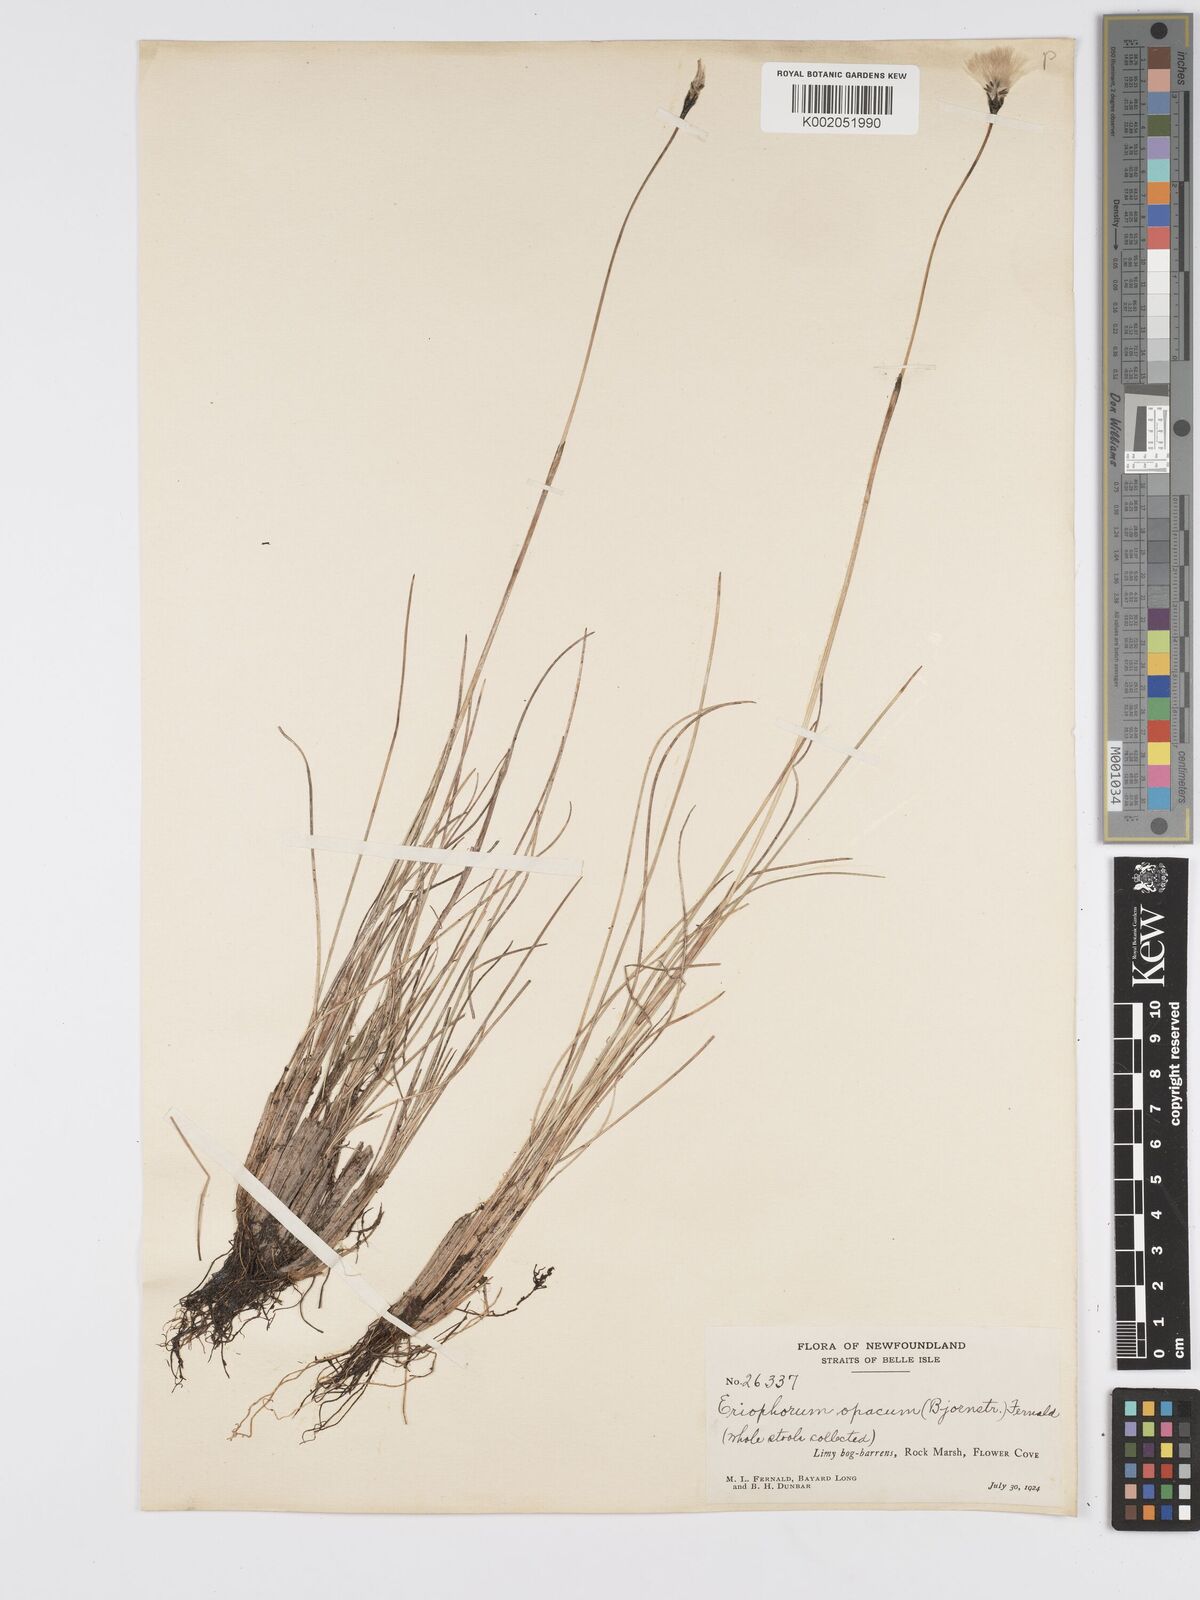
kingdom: Plantae
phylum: Tracheophyta
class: Liliopsida
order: Poales
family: Cyperaceae
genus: Eriophorum
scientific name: Eriophorum brachyantherum
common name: Closed-sheathed cottongrass
